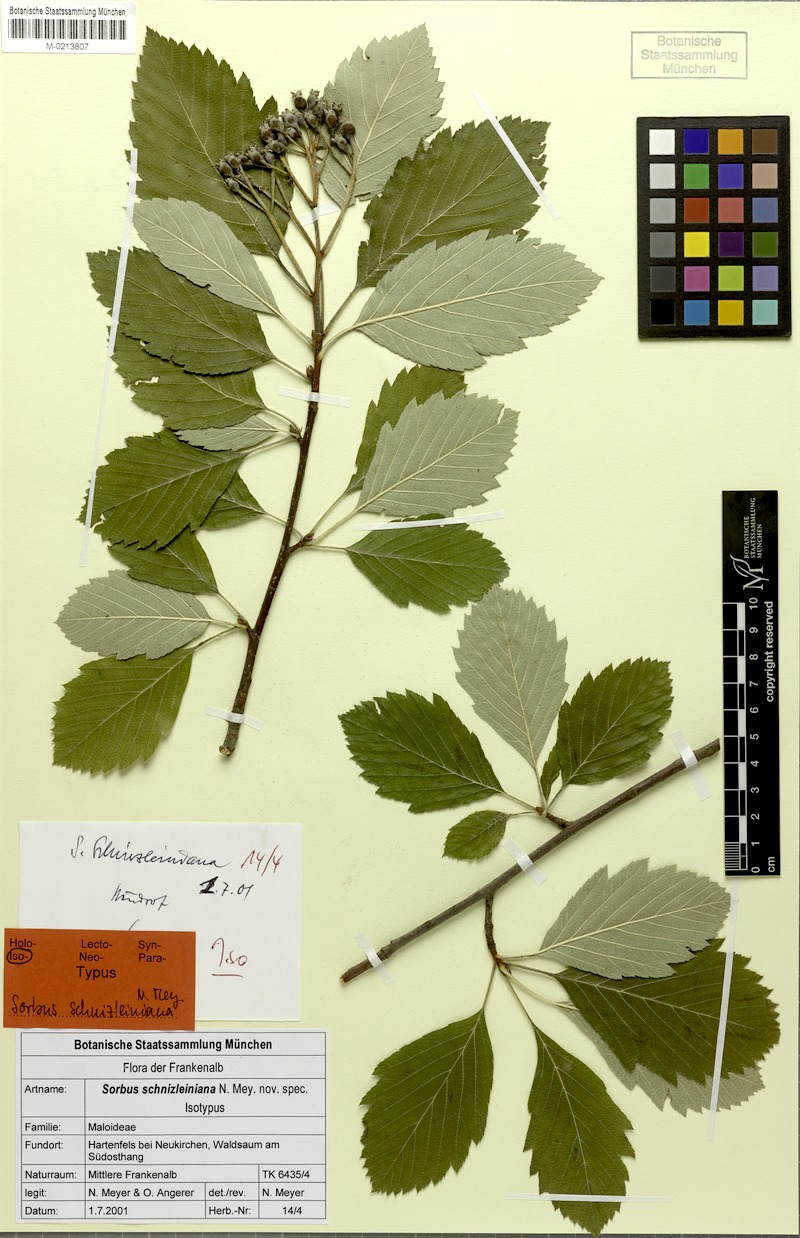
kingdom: Plantae
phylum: Tracheophyta
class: Magnoliopsida
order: Rosales
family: Rosaceae
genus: Karpatiosorbus
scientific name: Karpatiosorbus schnizleiniana
